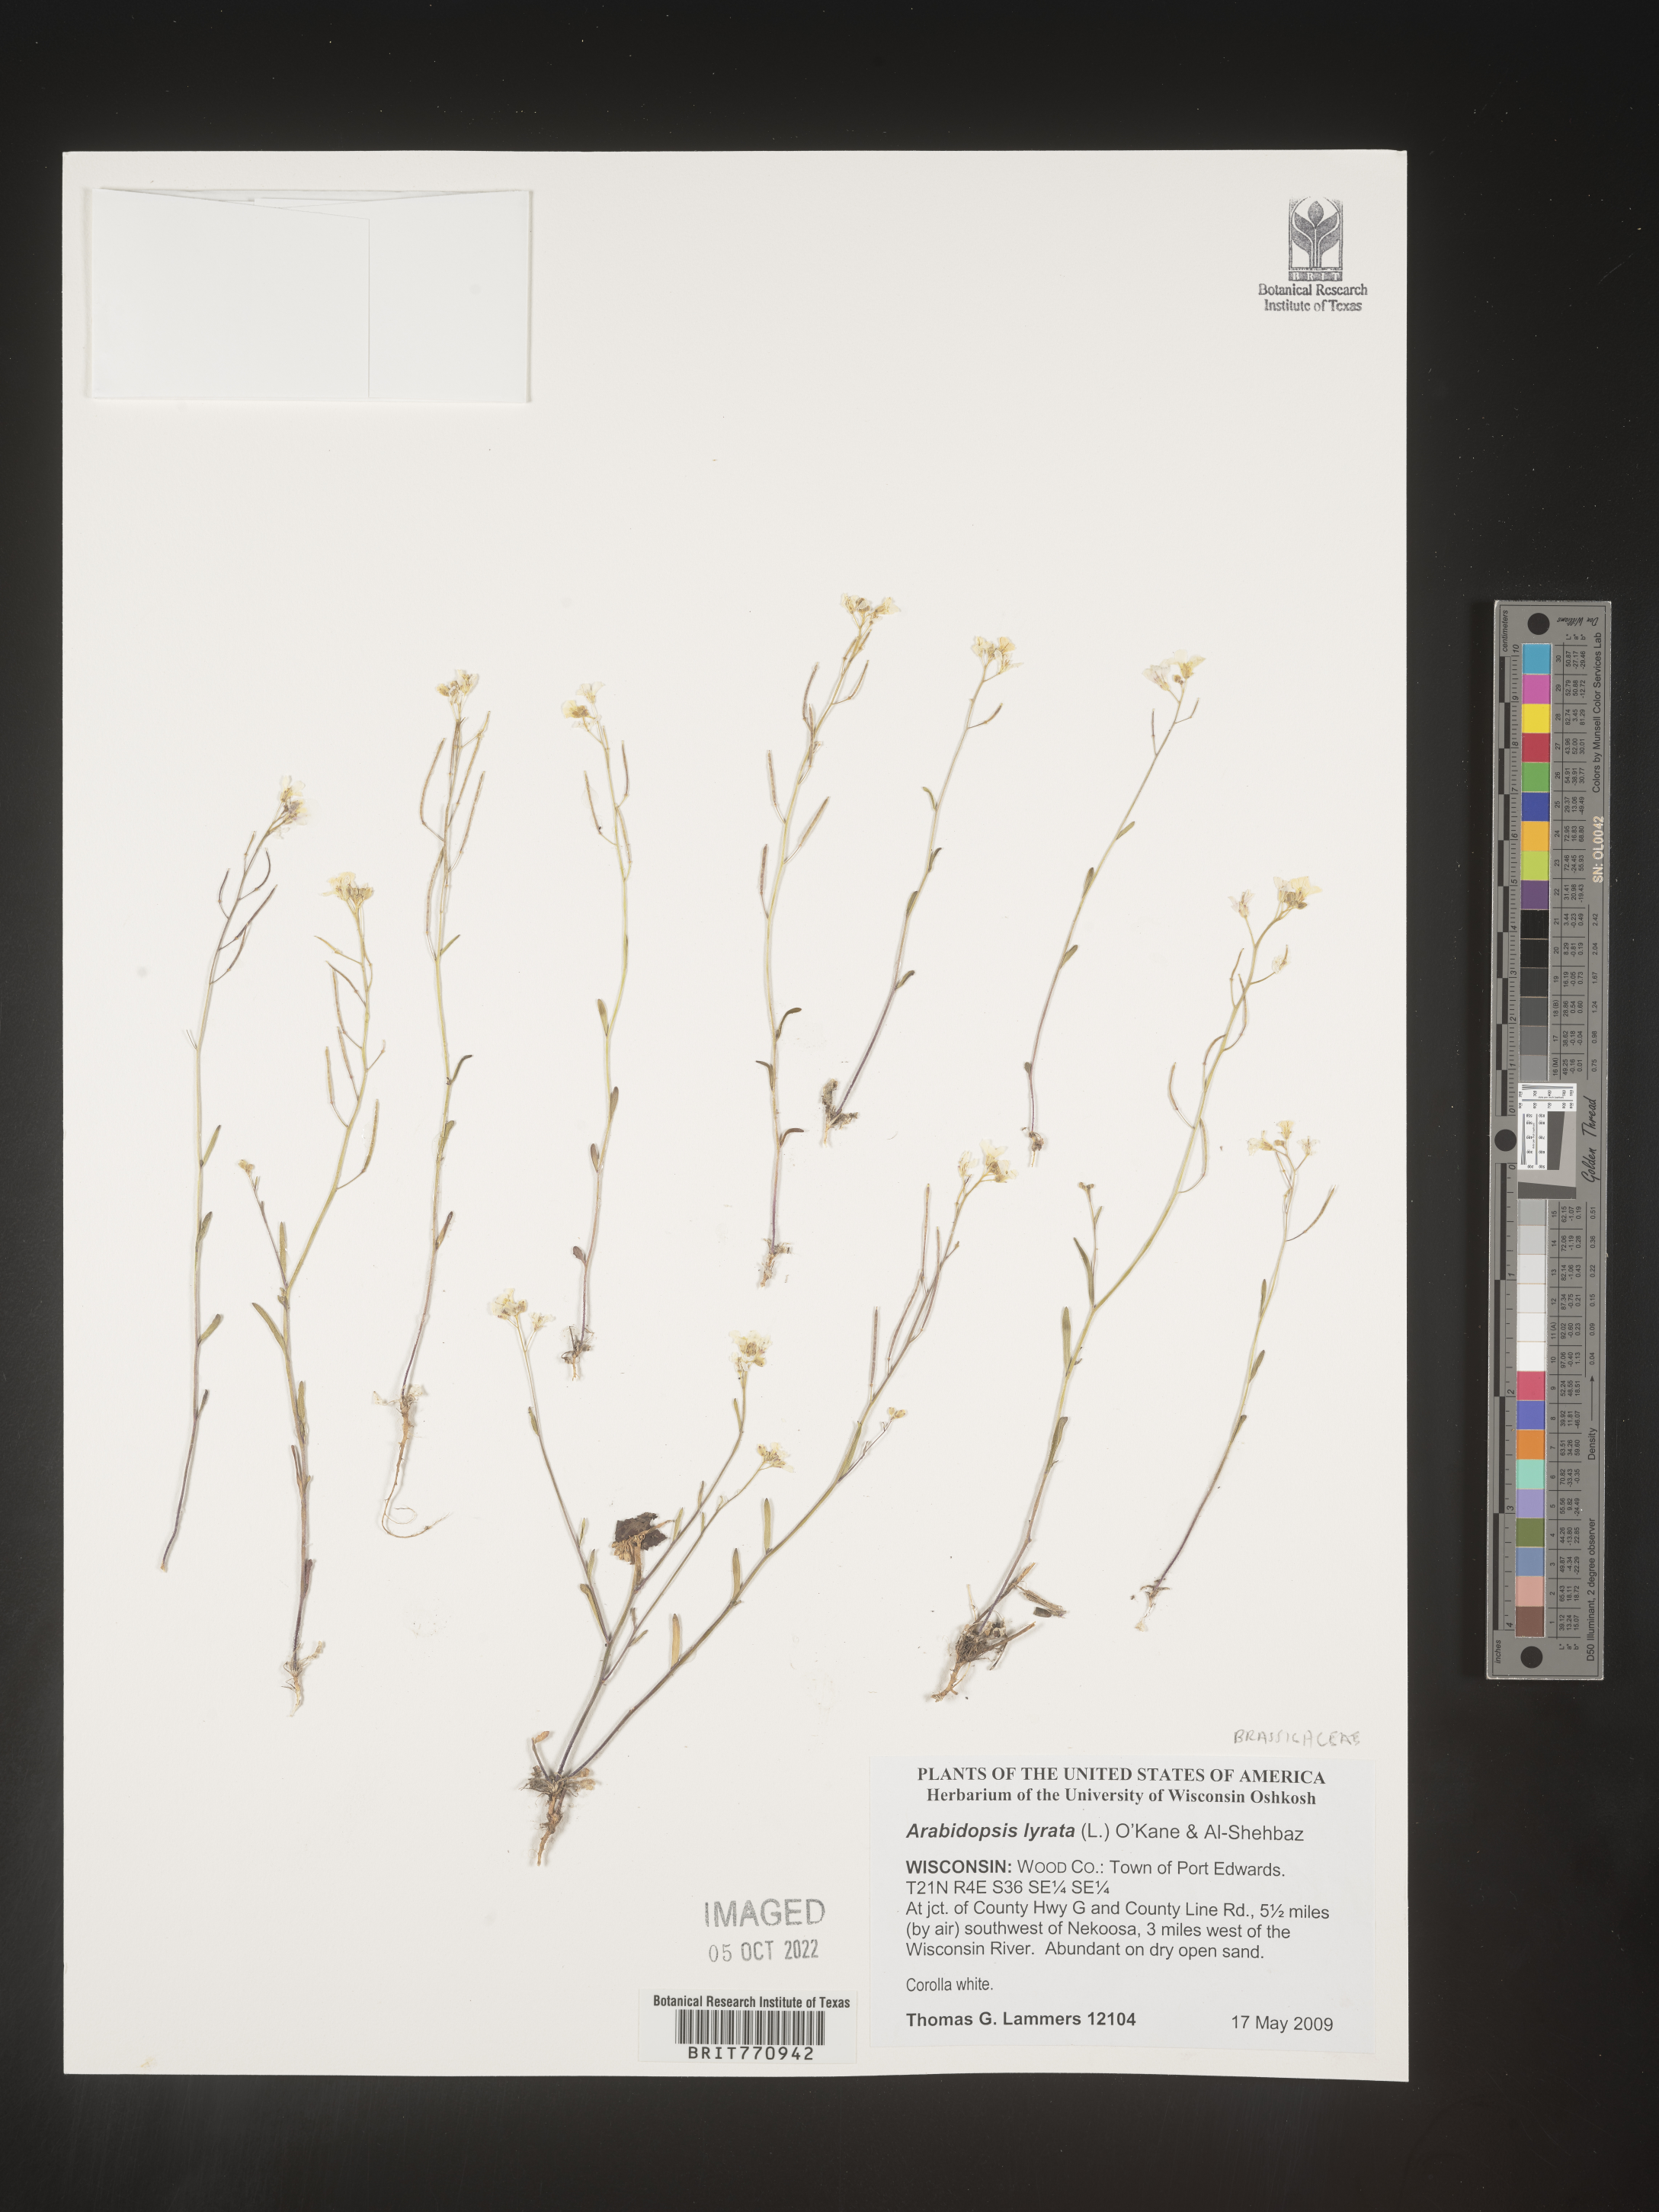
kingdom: Plantae
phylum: Tracheophyta
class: Magnoliopsida
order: Brassicales
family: Brassicaceae
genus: Arabidopsis
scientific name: Arabidopsis
